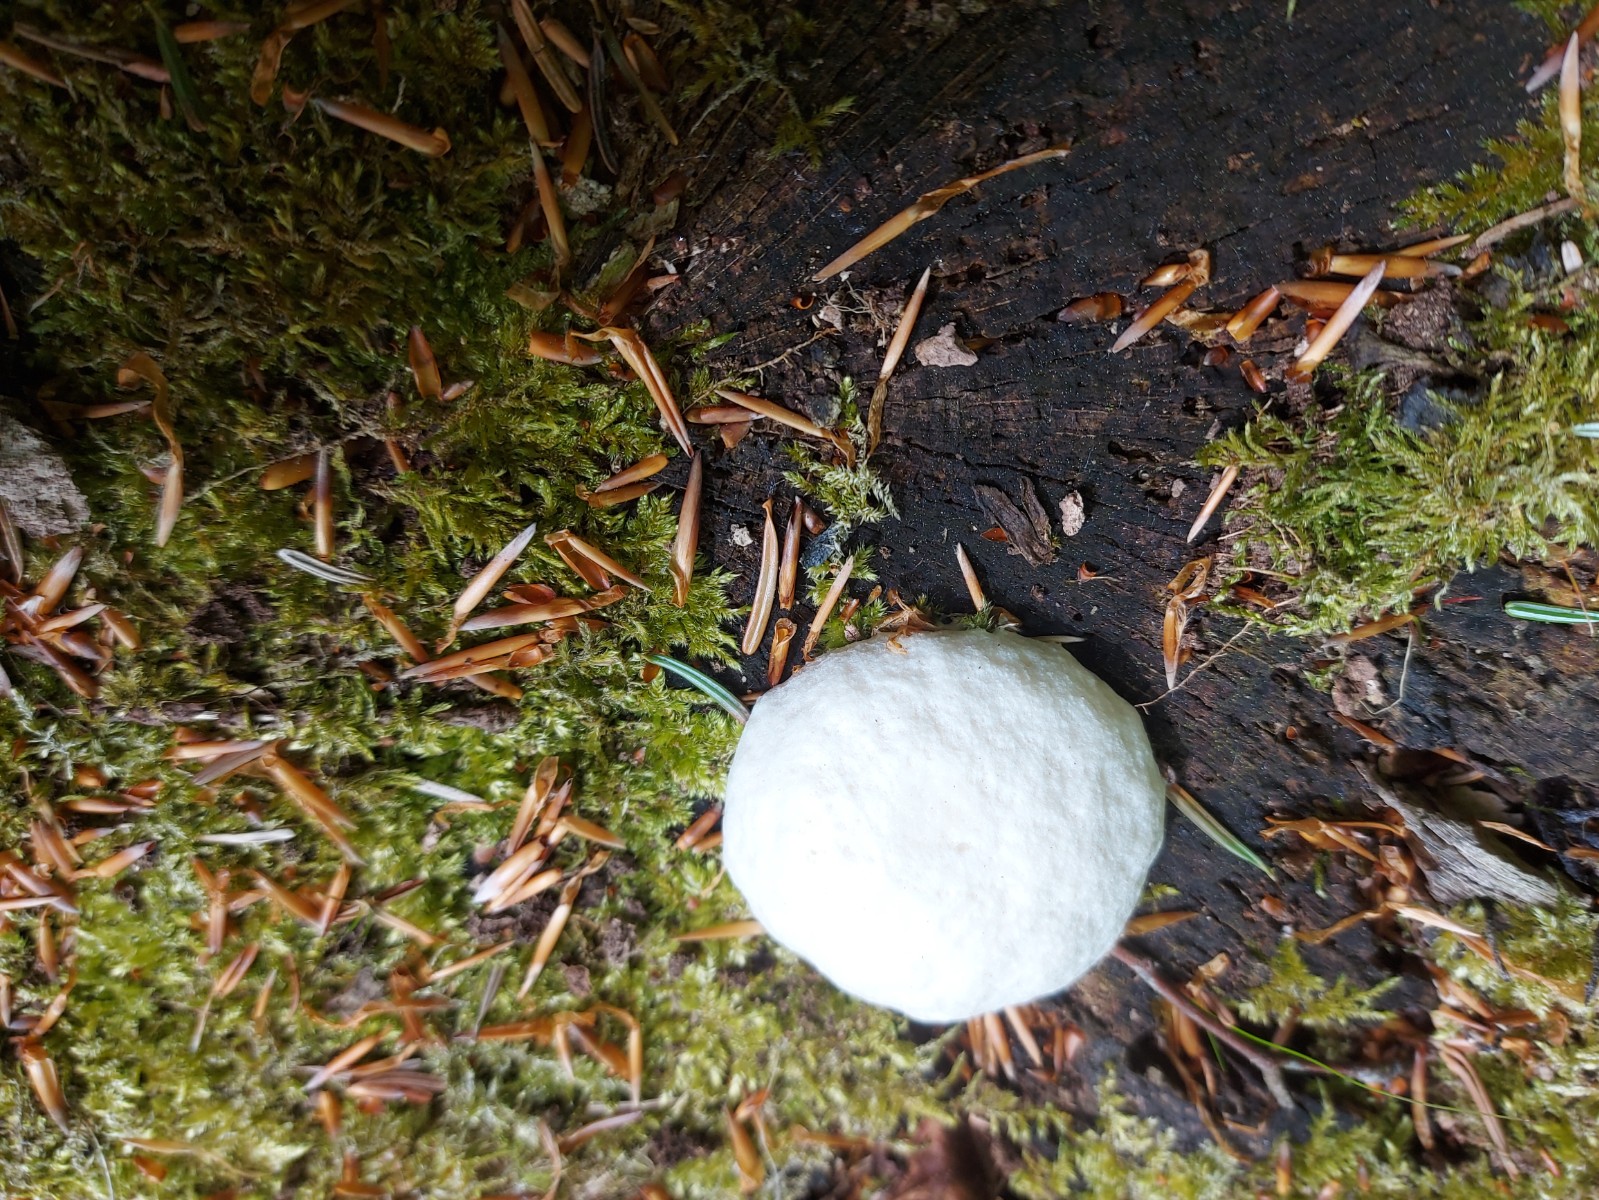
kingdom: Protozoa
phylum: Mycetozoa
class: Myxomycetes
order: Cribrariales
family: Tubiferaceae
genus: Reticularia
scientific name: Reticularia lycoperdon
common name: skinnende støvpude
